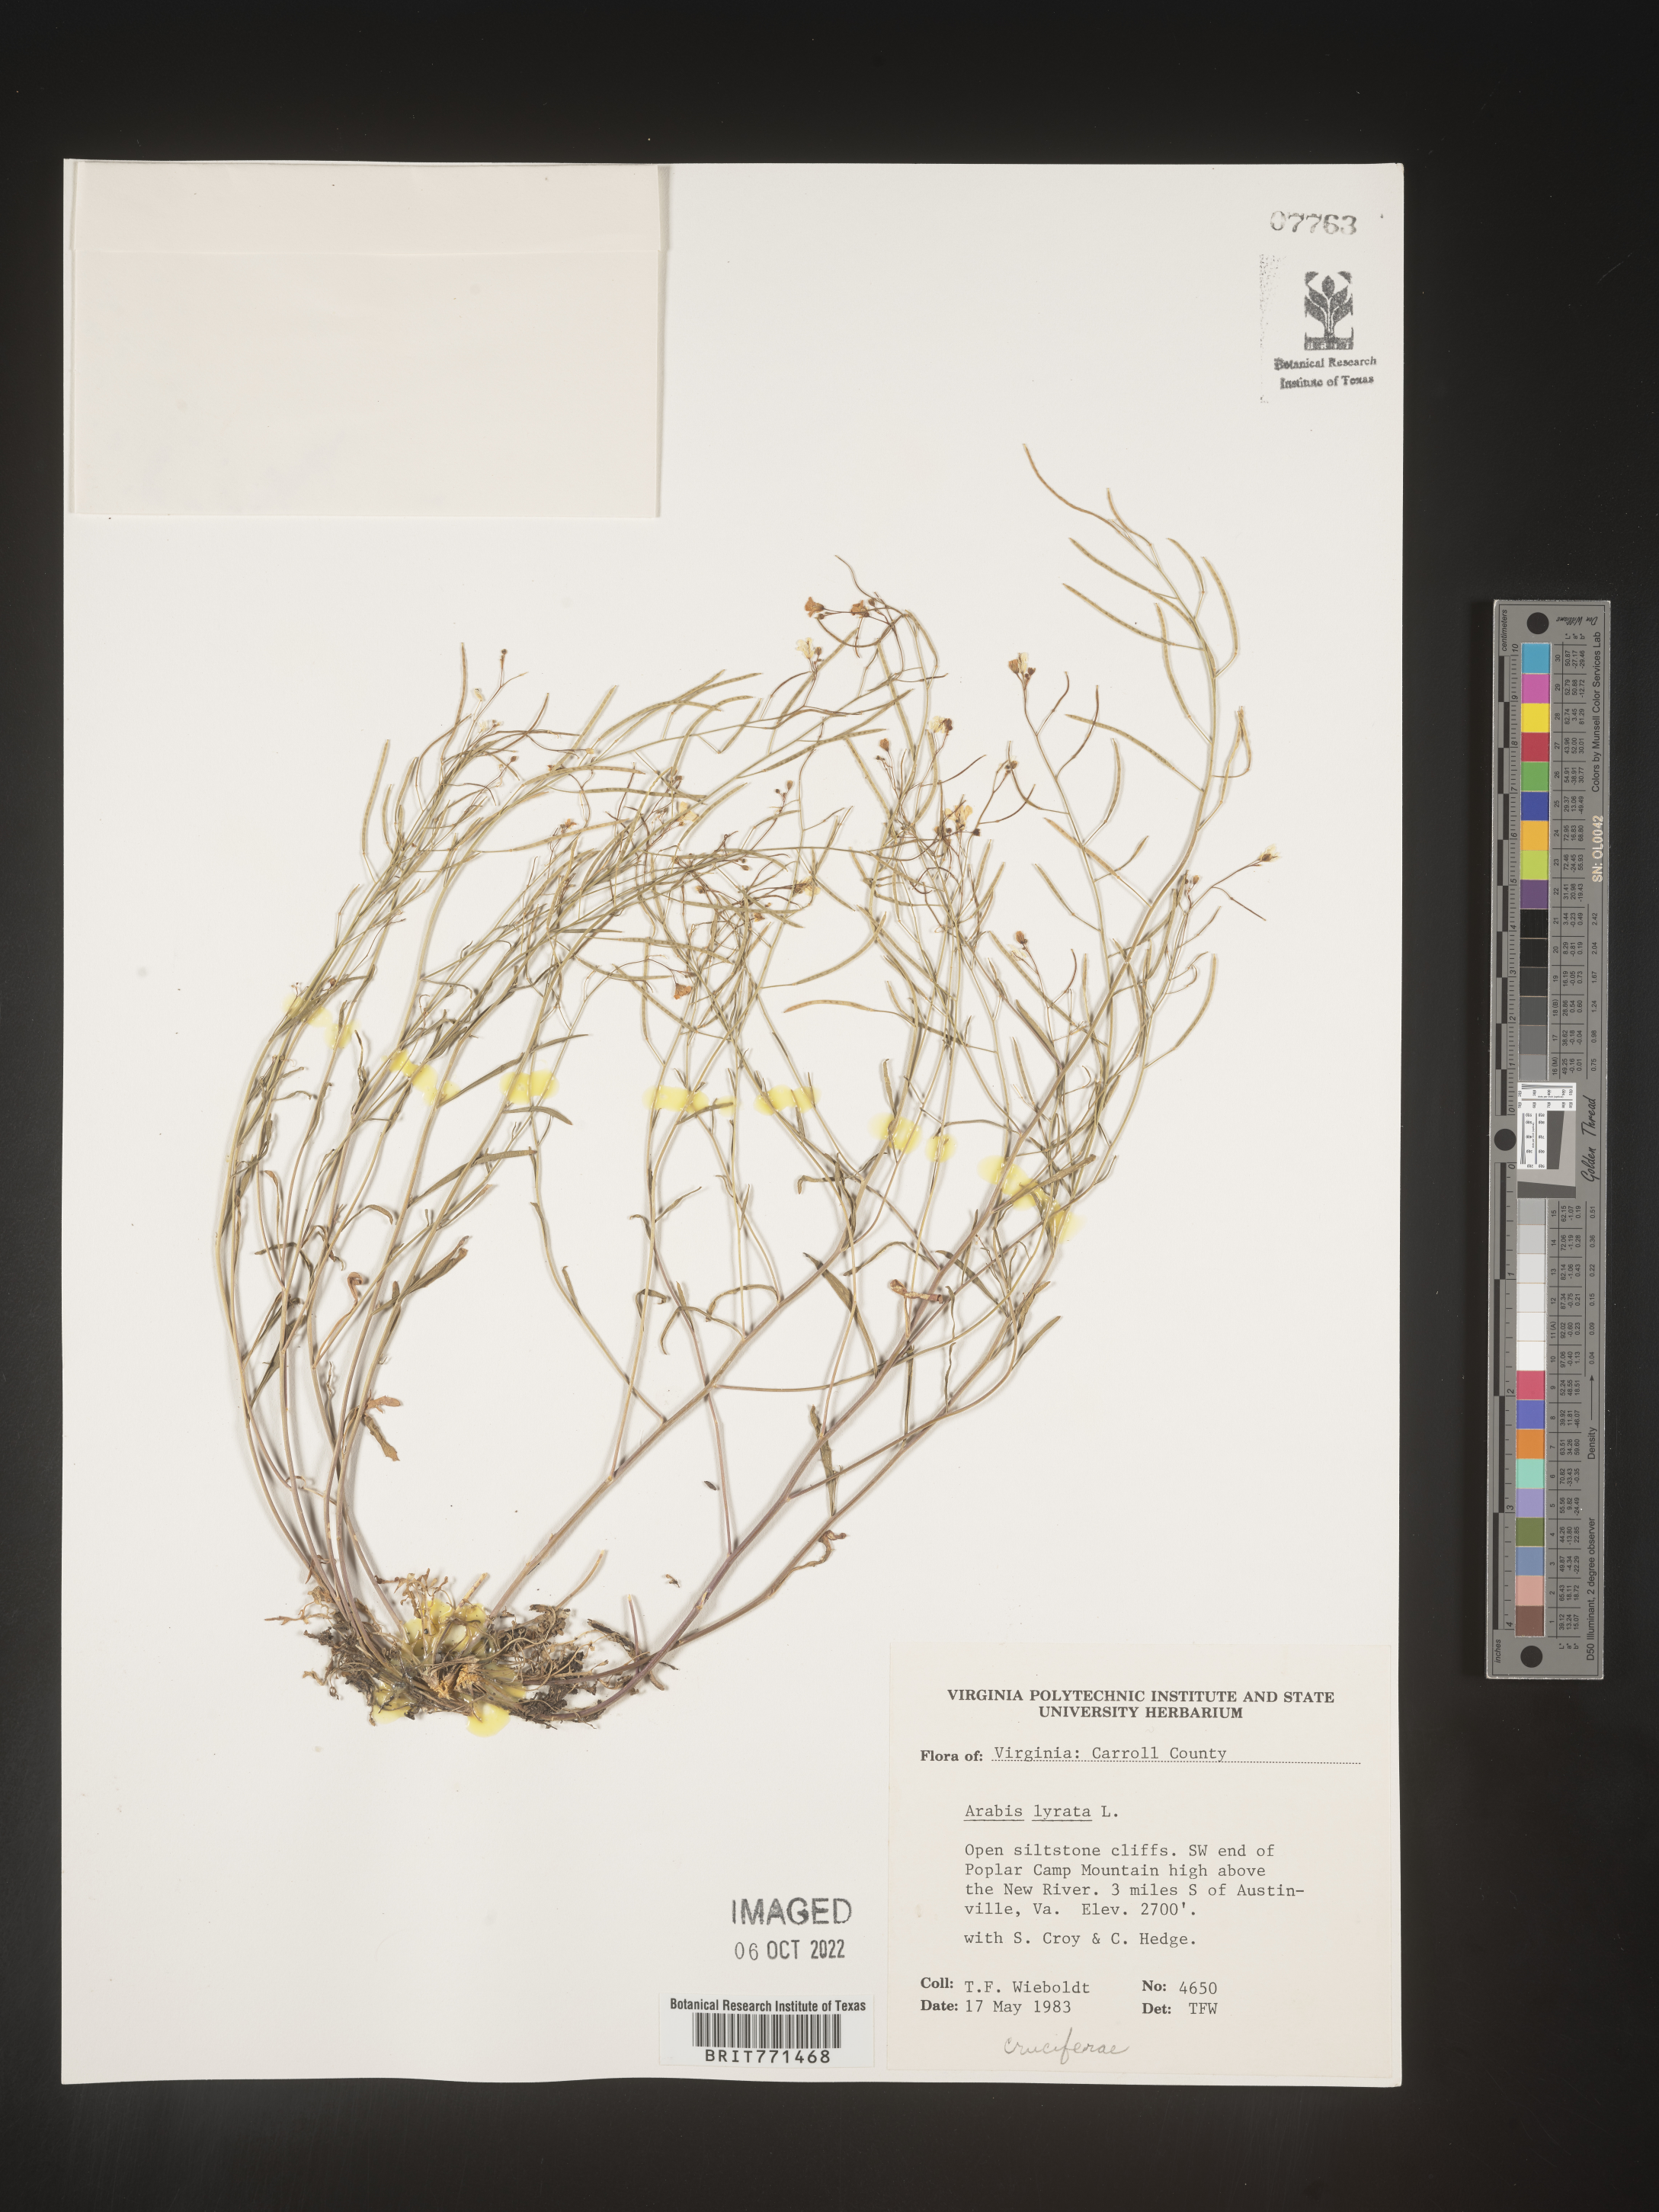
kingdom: Plantae
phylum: Tracheophyta
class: Magnoliopsida
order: Brassicales
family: Brassicaceae
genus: Arabidopsis
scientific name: Arabidopsis lyrata
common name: Lyrate rockcress
